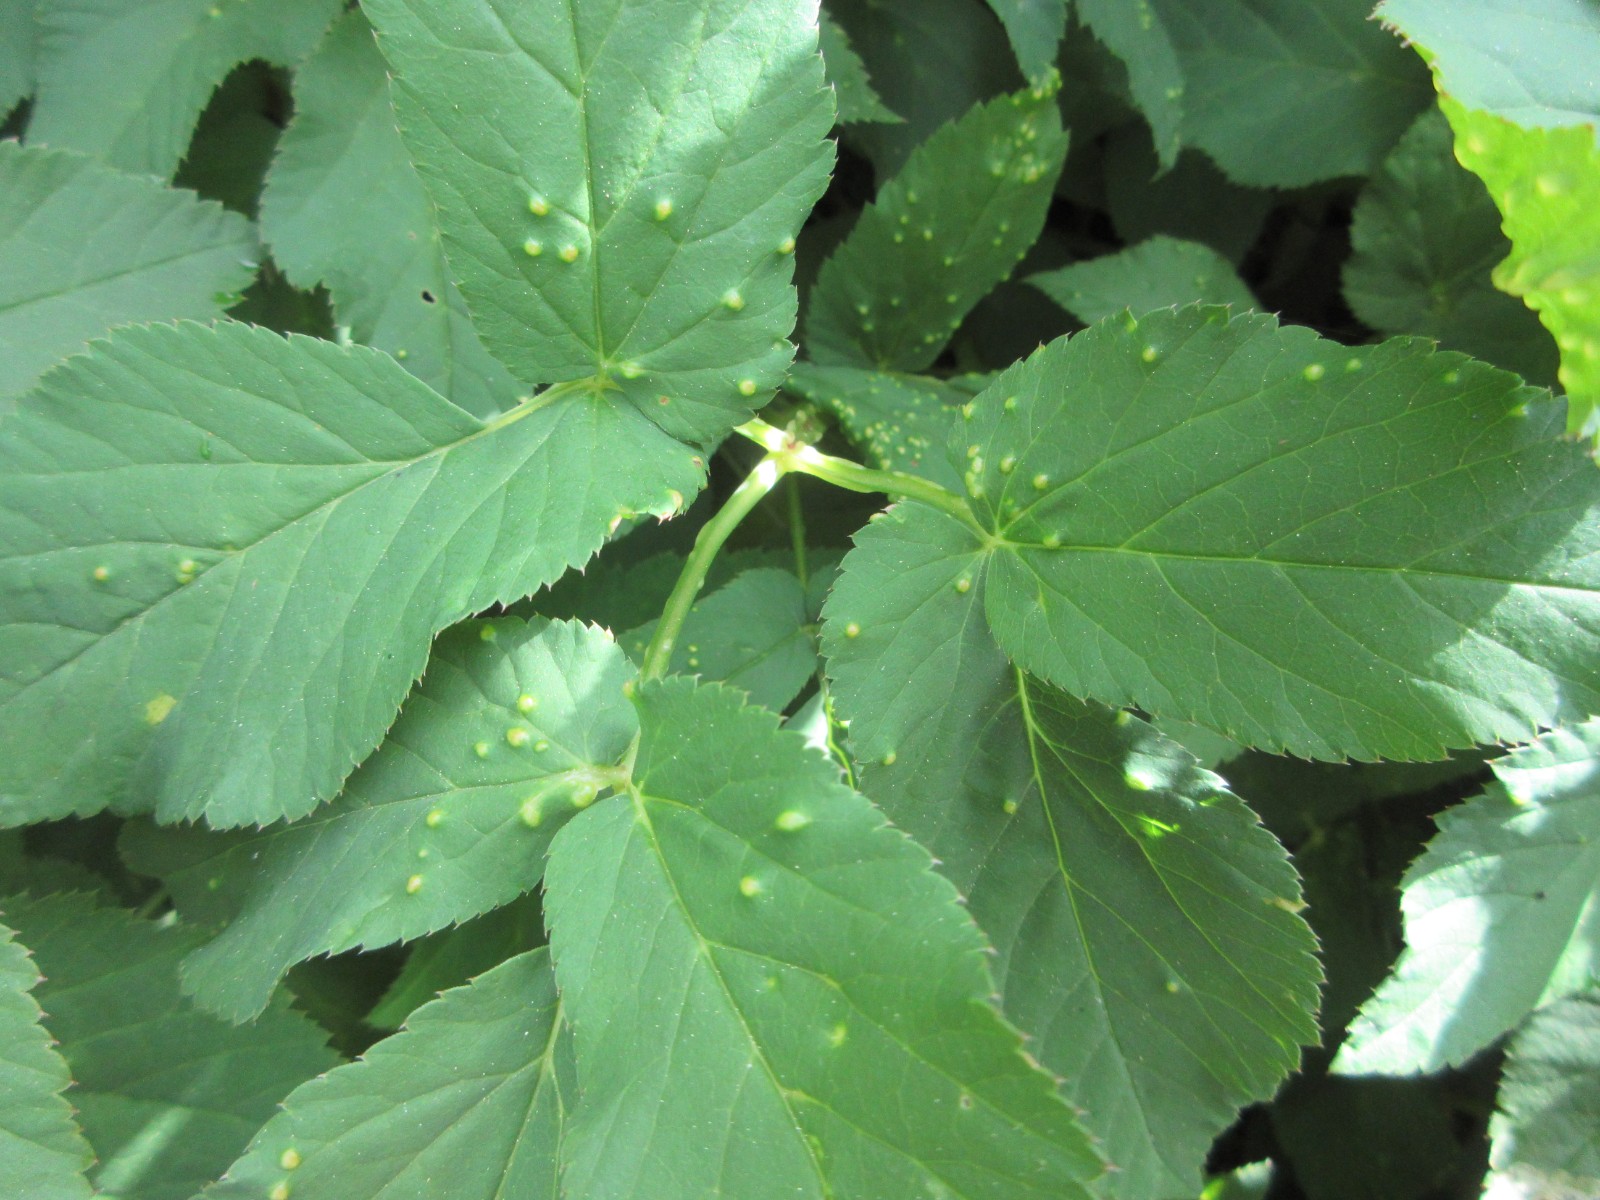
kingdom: Fungi
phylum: Ascomycota
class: Taphrinomycetes
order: Taphrinales
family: Taphrinaceae
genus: Protomyces
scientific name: Protomyces macrosporus
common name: skvalderkål-vablesæk
